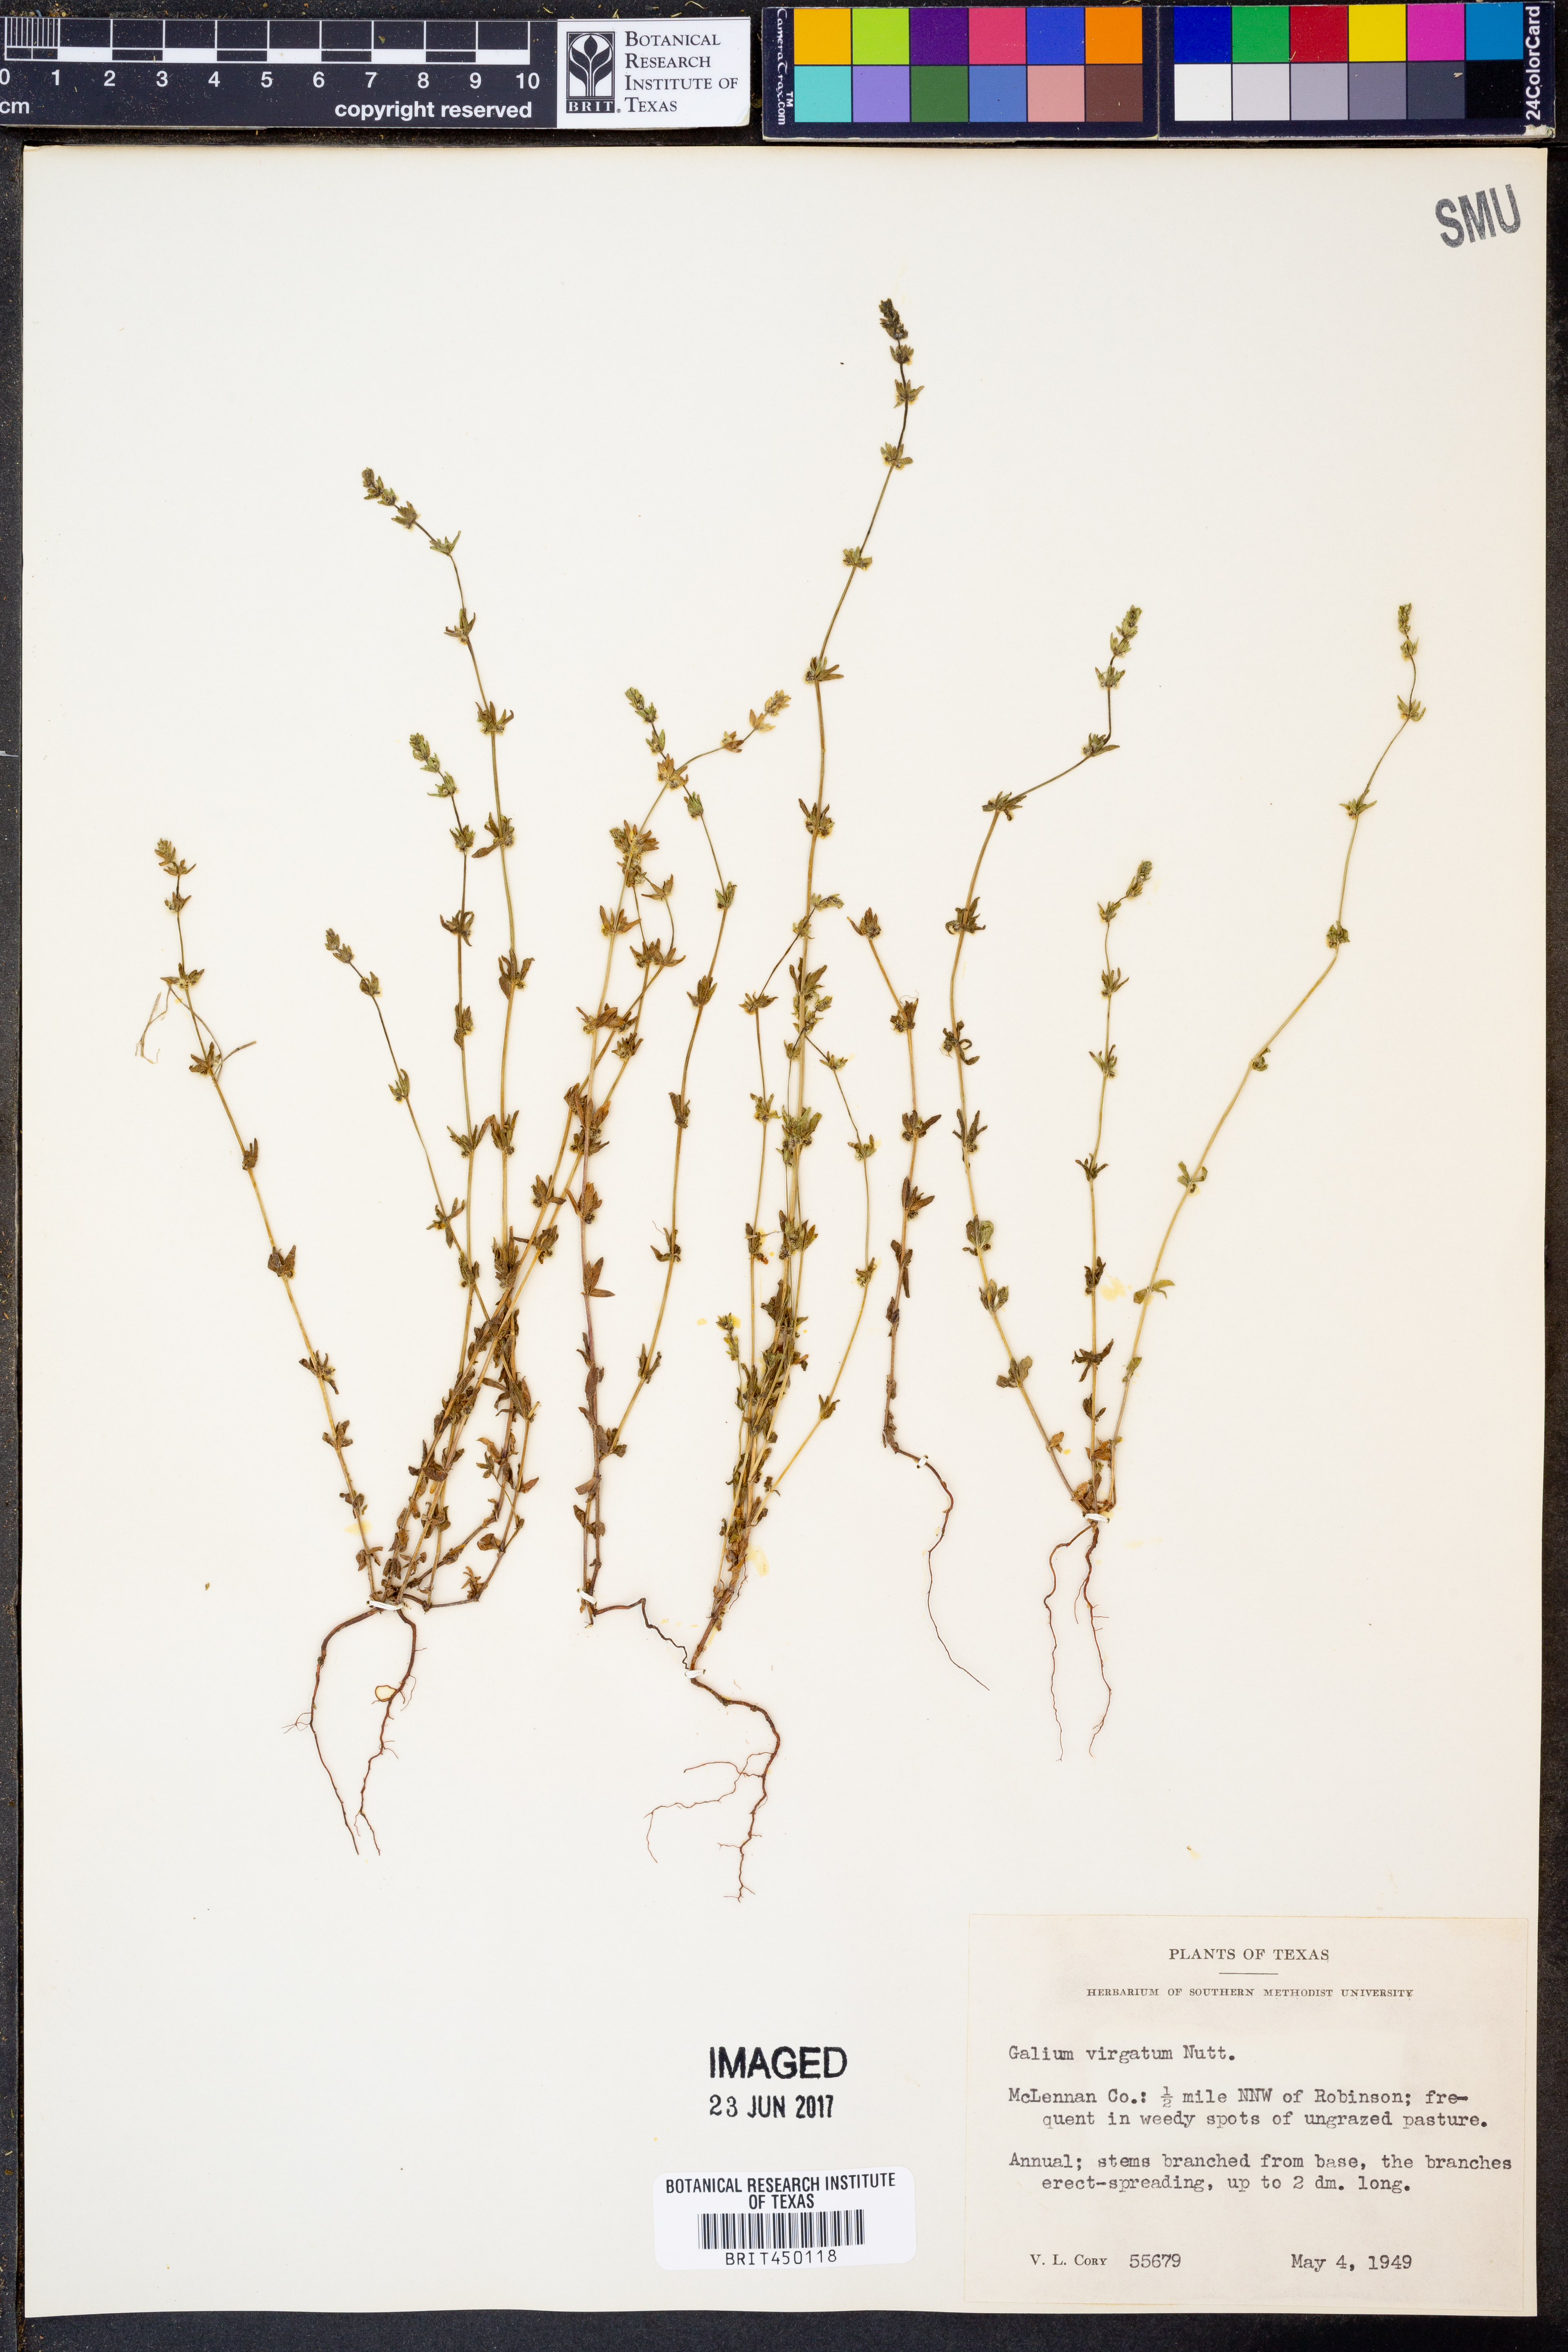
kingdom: Plantae
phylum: Tracheophyta
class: Magnoliopsida
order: Gentianales
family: Rubiaceae
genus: Galium
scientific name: Galium virgatum
